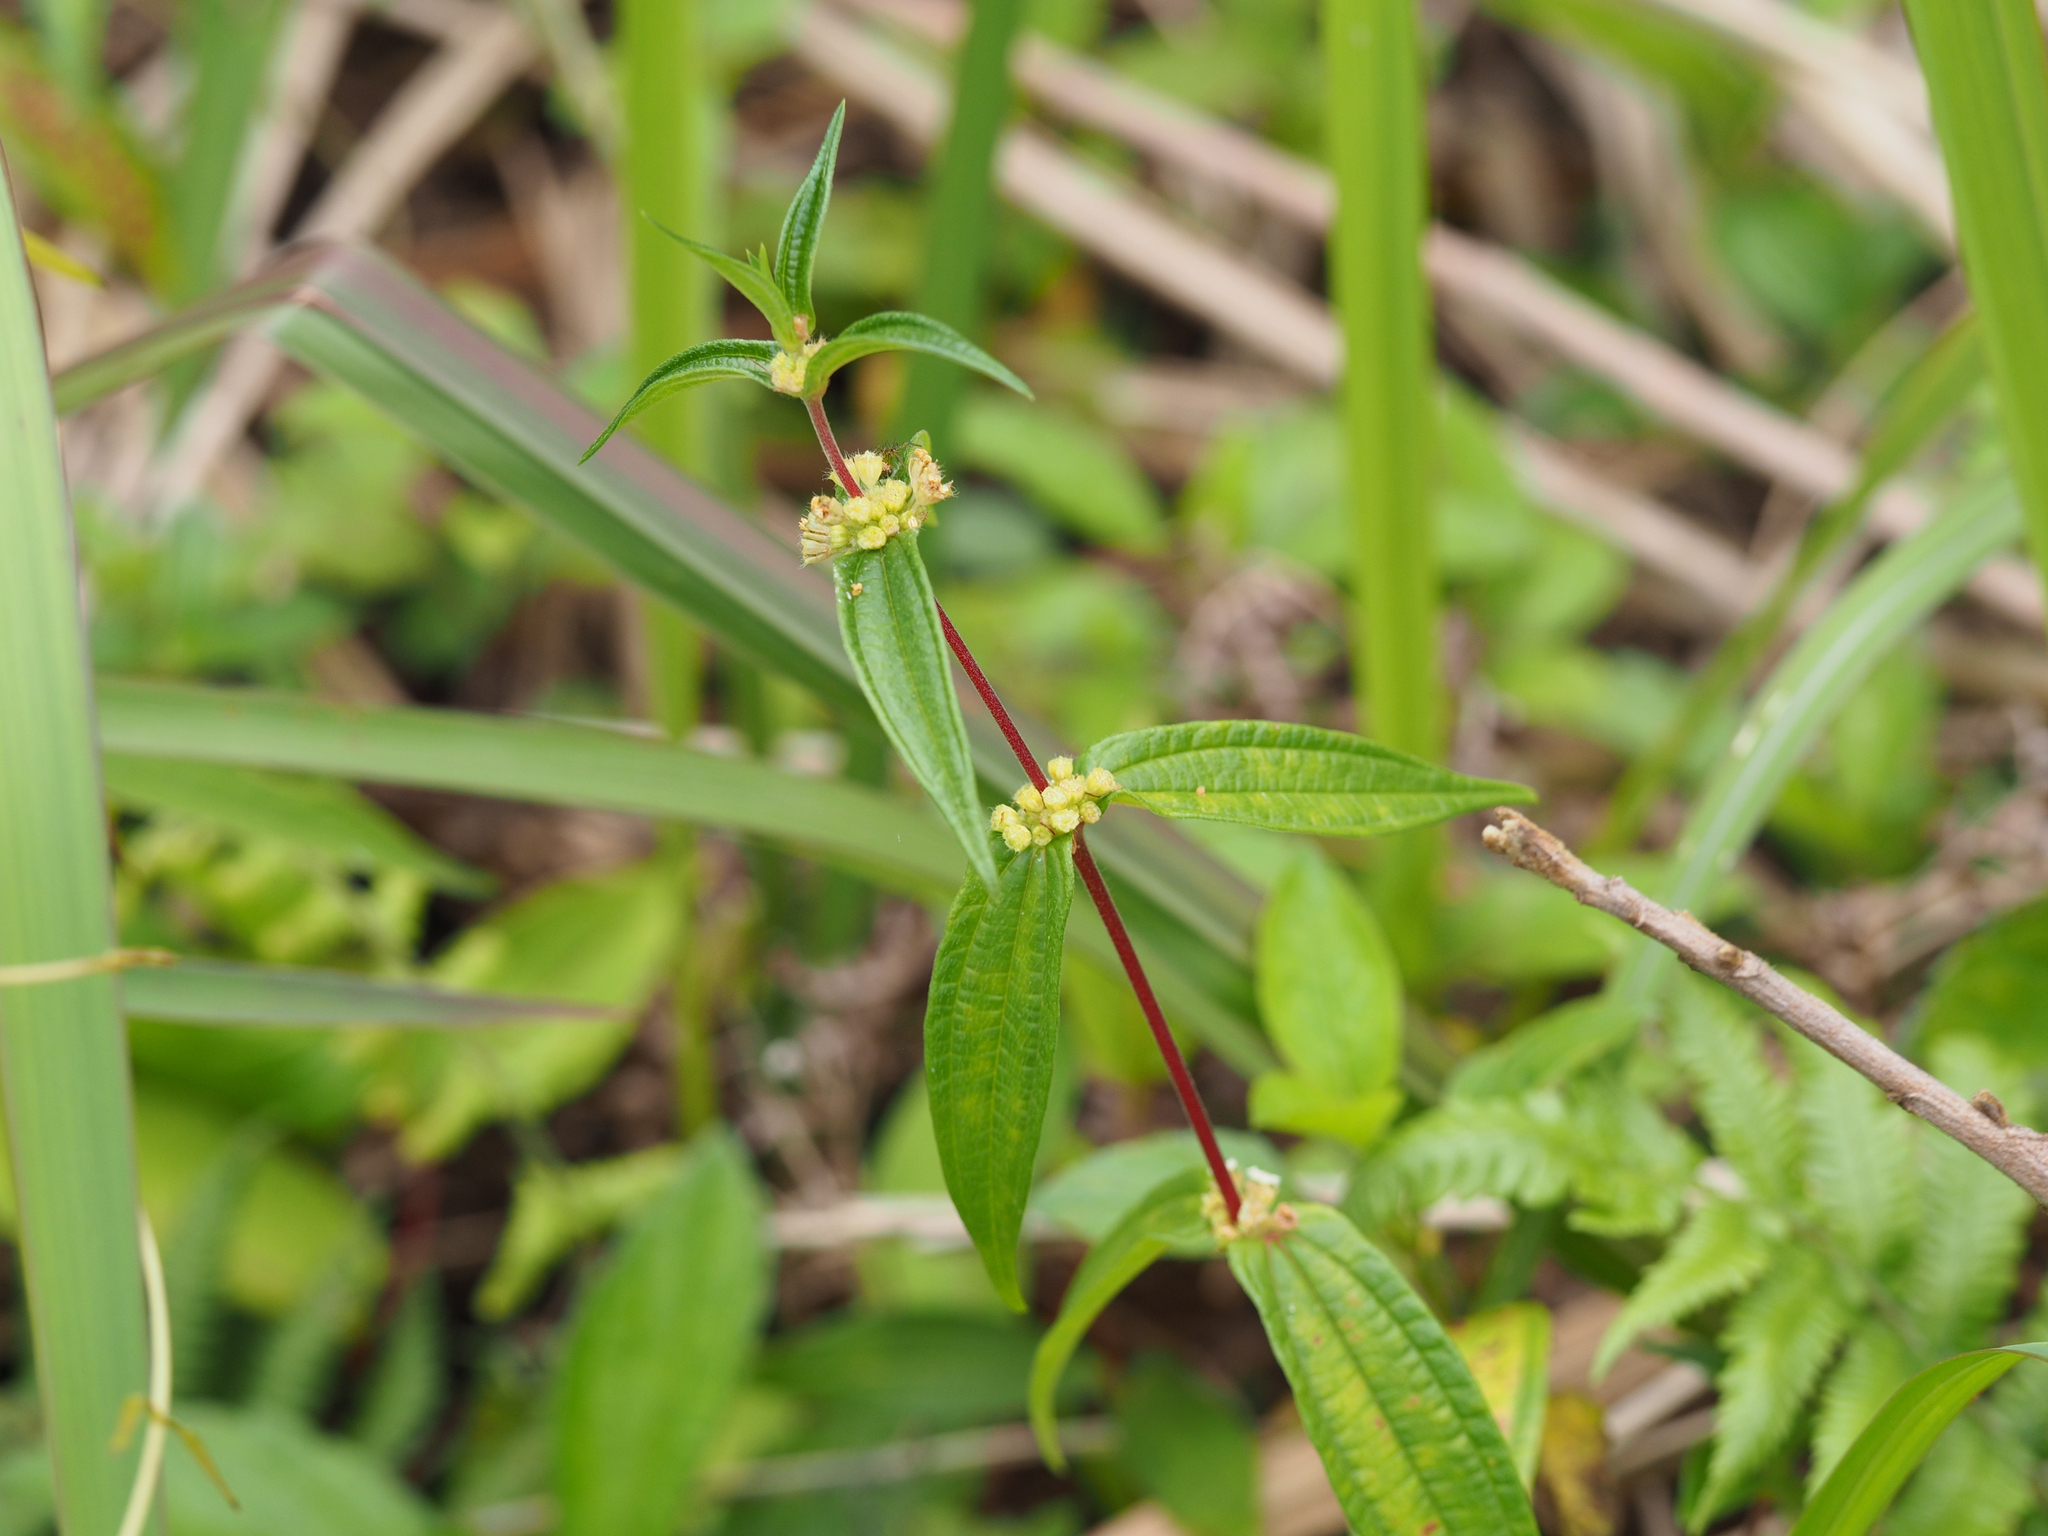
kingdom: Plantae
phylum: Tracheophyta
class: Magnoliopsida
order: Rosales
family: Urticaceae
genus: Gonostegia
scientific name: Gonostegia triandra
